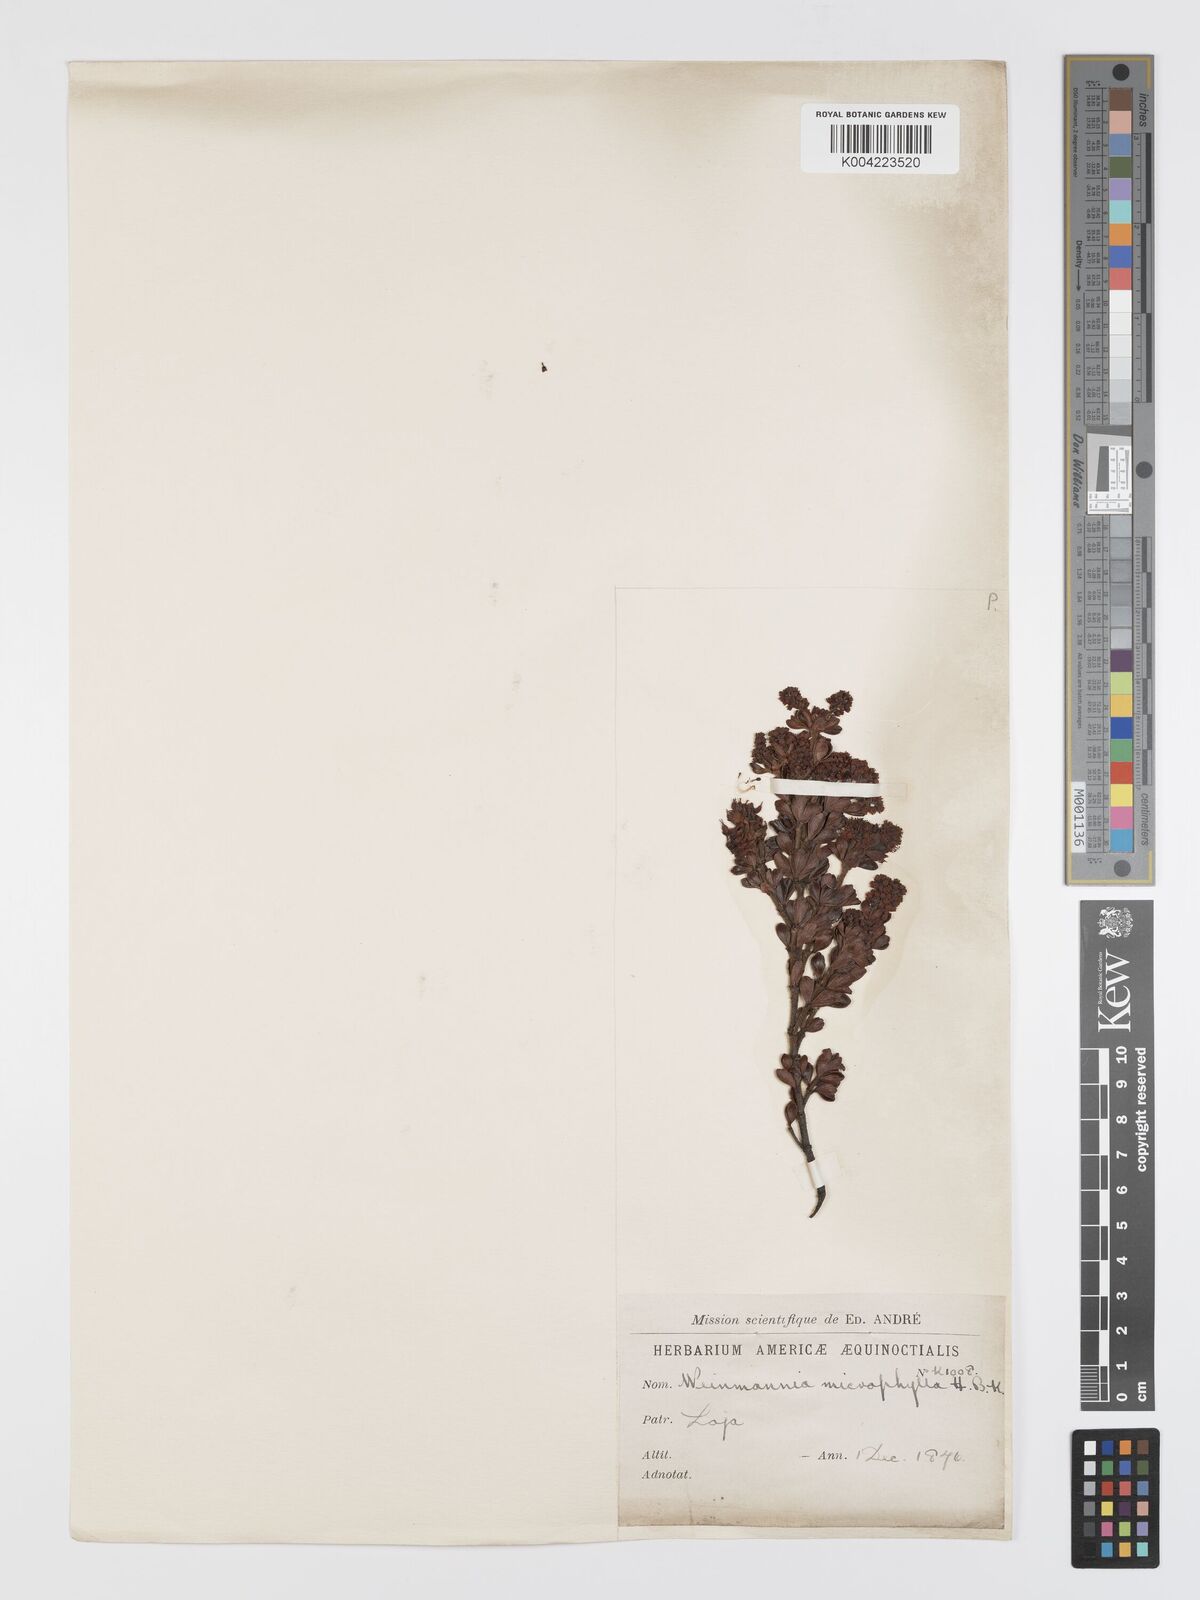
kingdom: Plantae
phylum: Tracheophyta
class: Magnoliopsida
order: Oxalidales
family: Cunoniaceae
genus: Weinmannia
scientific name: Weinmannia microphylla
